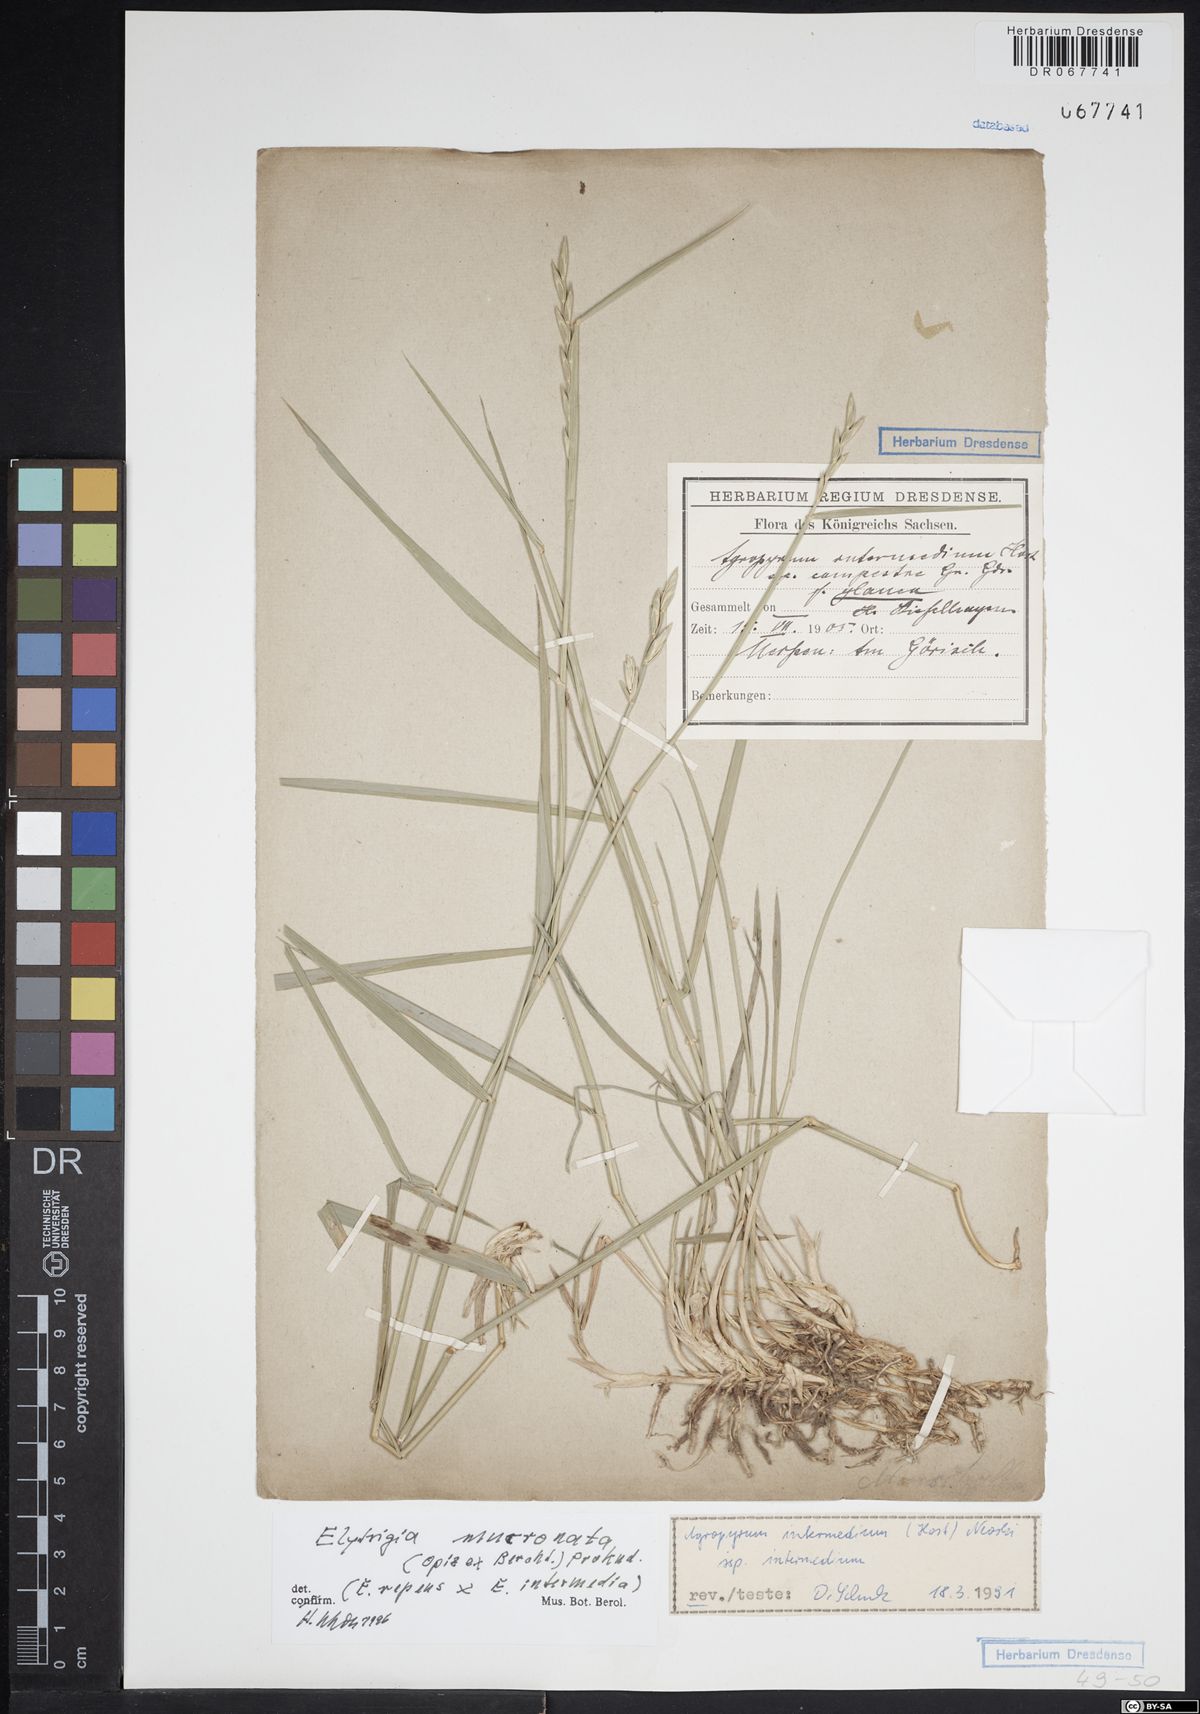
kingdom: Plantae
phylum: Tracheophyta
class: Liliopsida
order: Poales
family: Poaceae
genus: Thinoelymus
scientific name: Thinoelymus mucronatus
